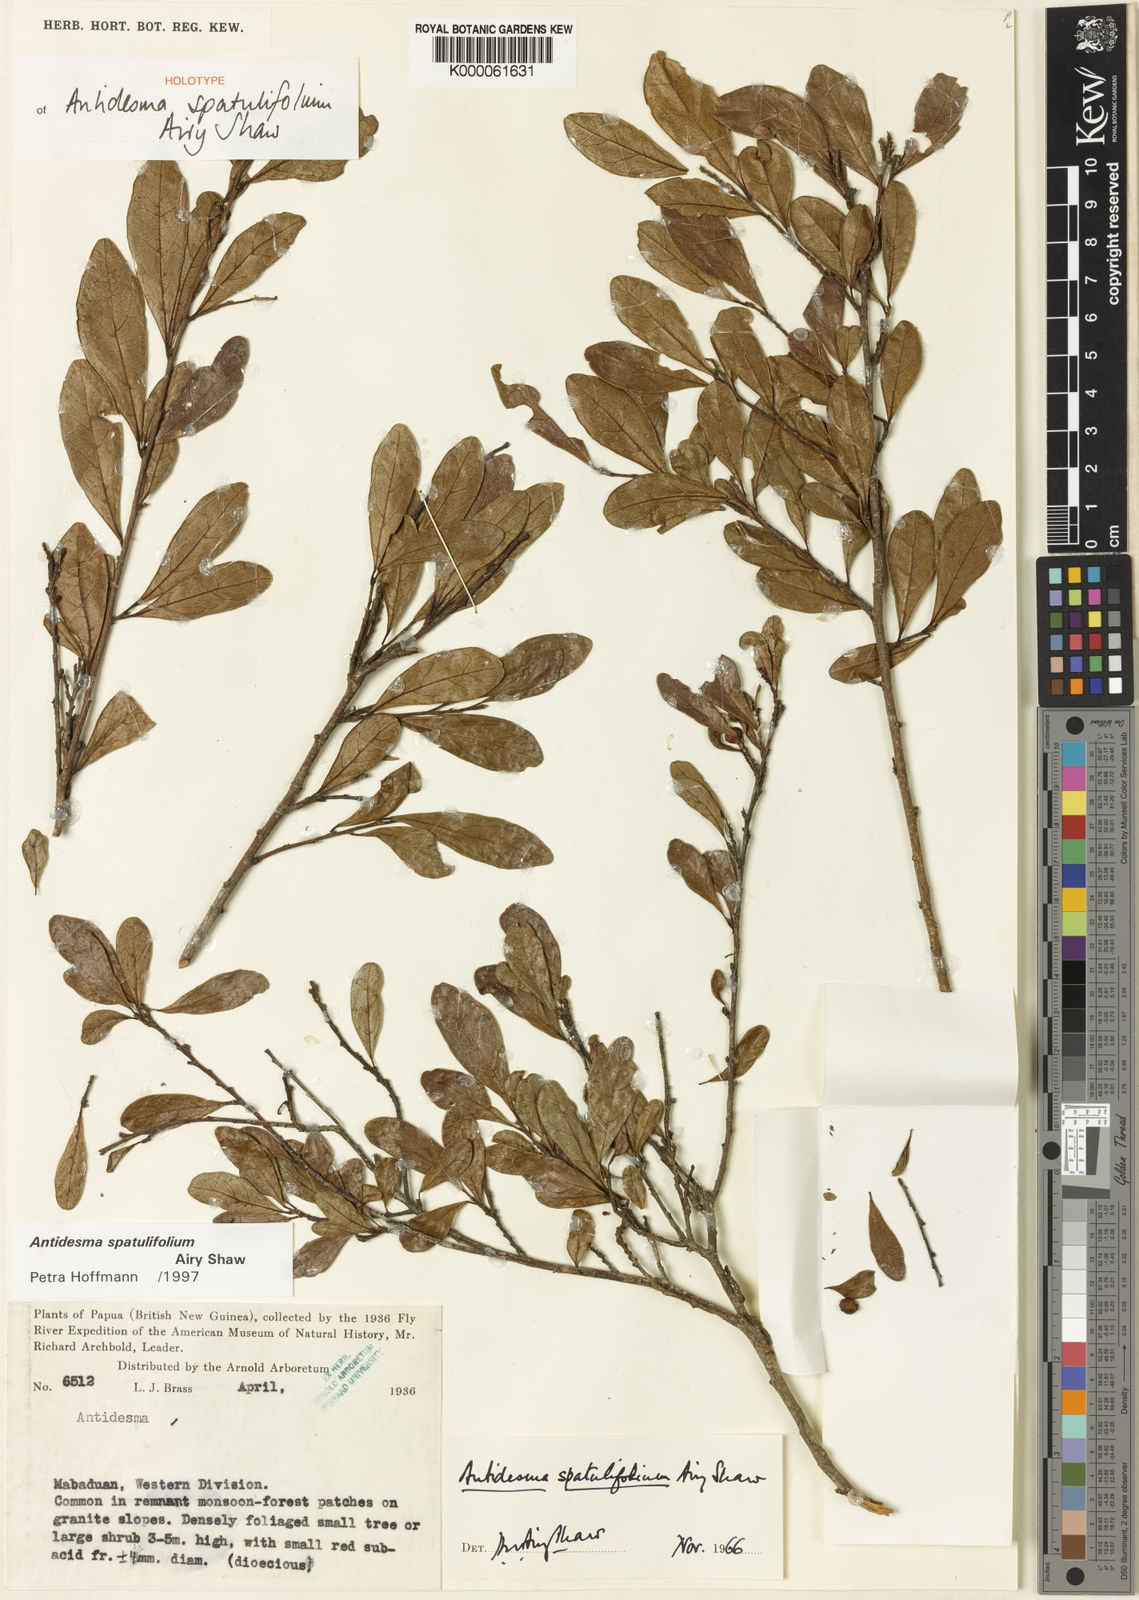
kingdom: Plantae
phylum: Tracheophyta
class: Magnoliopsida
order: Malpighiales
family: Phyllanthaceae
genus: Antidesma
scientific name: Antidesma spatulifolium
